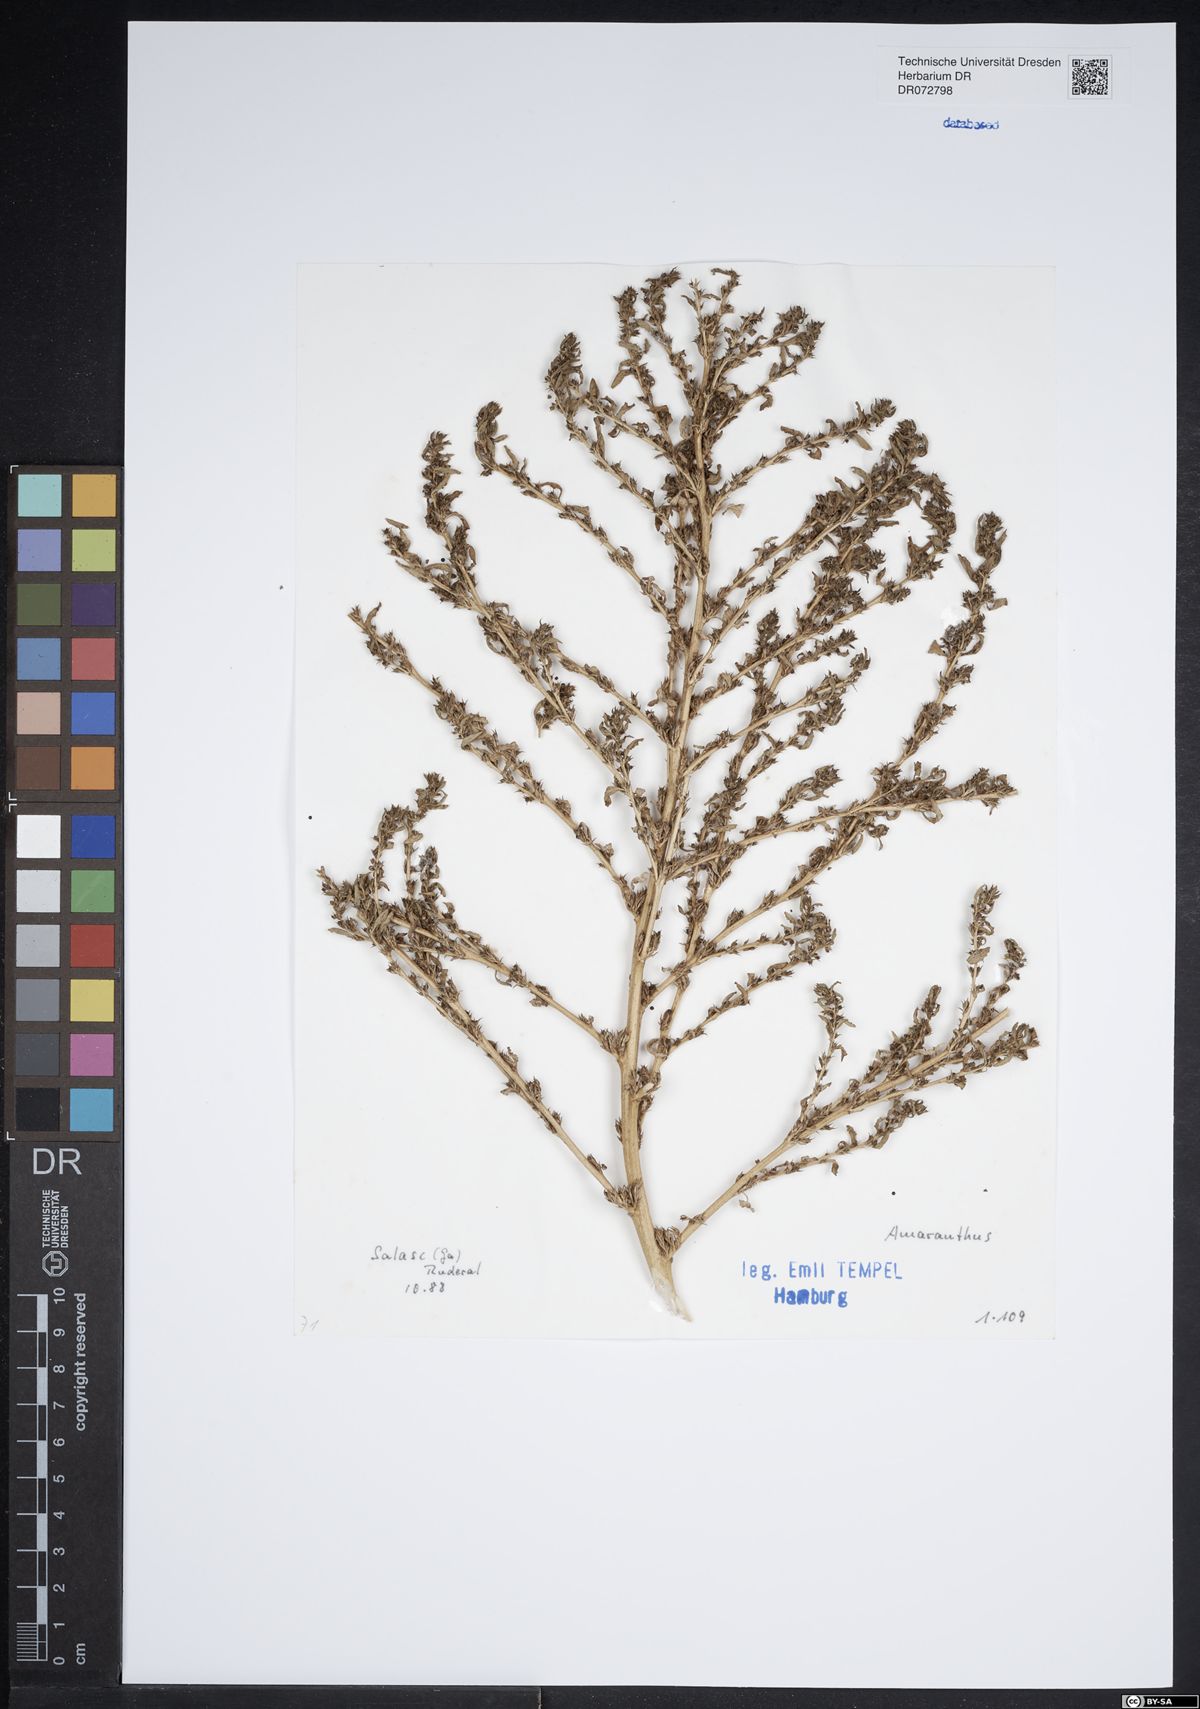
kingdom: Plantae
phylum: Tracheophyta
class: Magnoliopsida
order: Caryophyllales
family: Amaranthaceae
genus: Amaranthus
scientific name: Amaranthus
